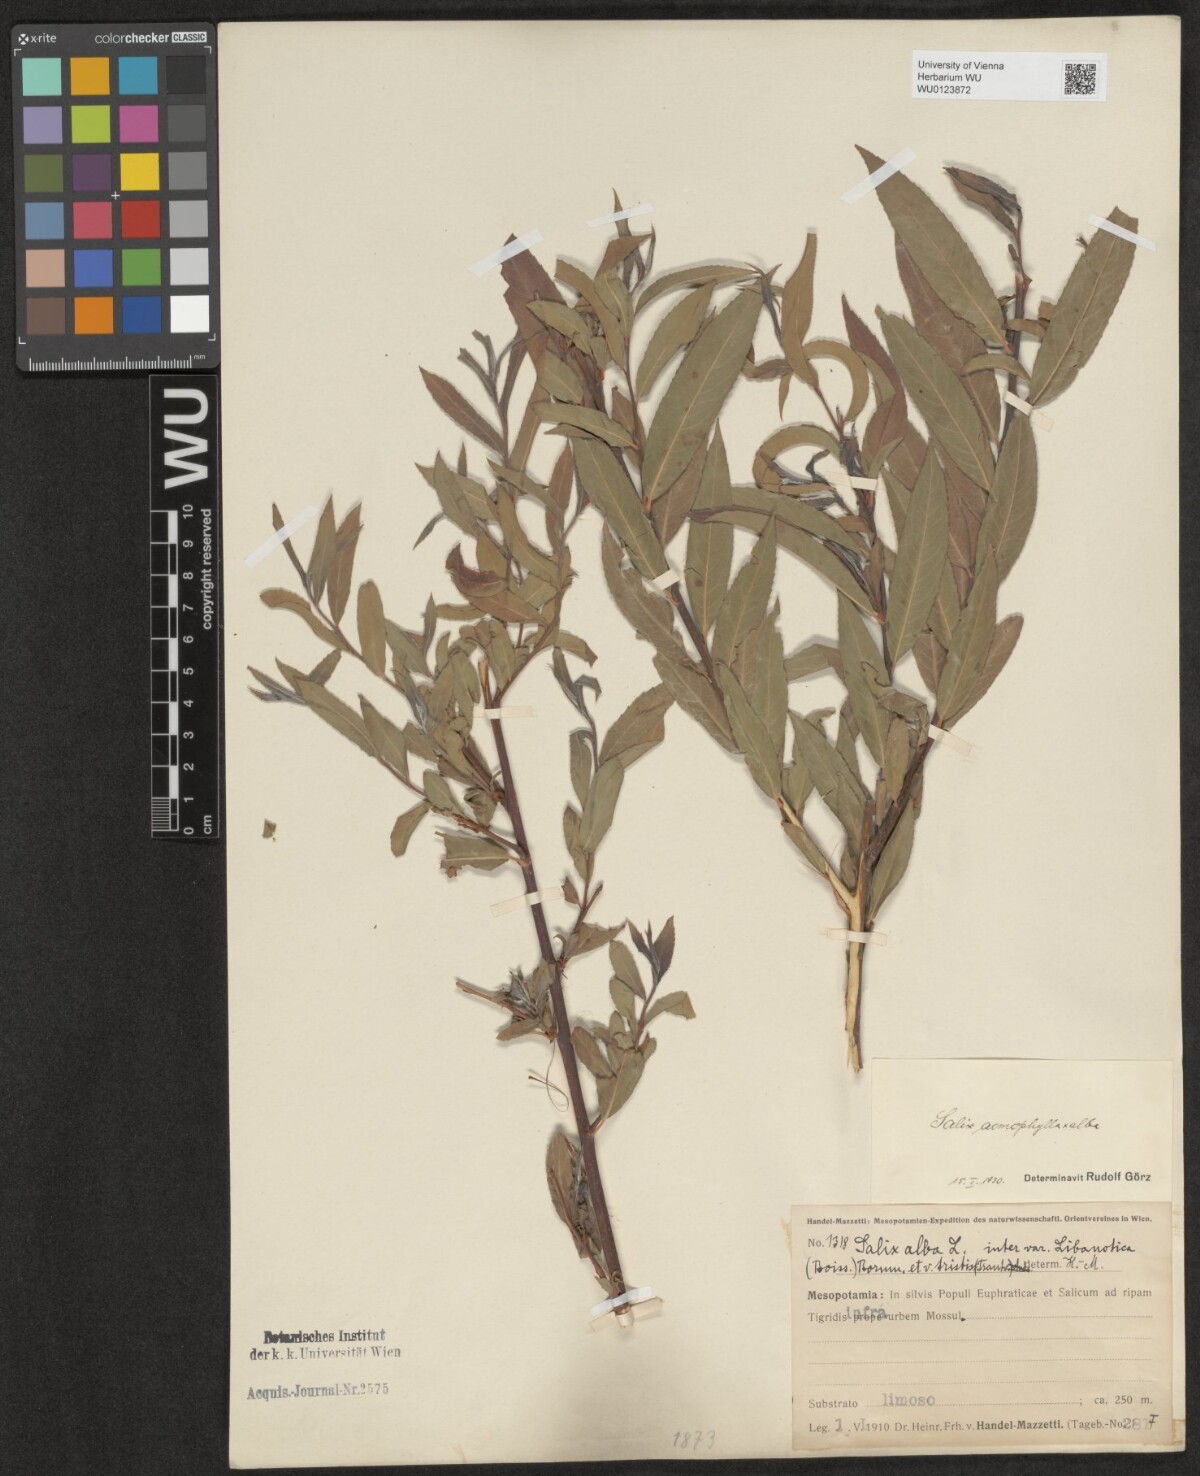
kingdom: Plantae
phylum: Tracheophyta
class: Magnoliopsida
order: Malpighiales
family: Salicaceae
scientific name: Salicaceae
